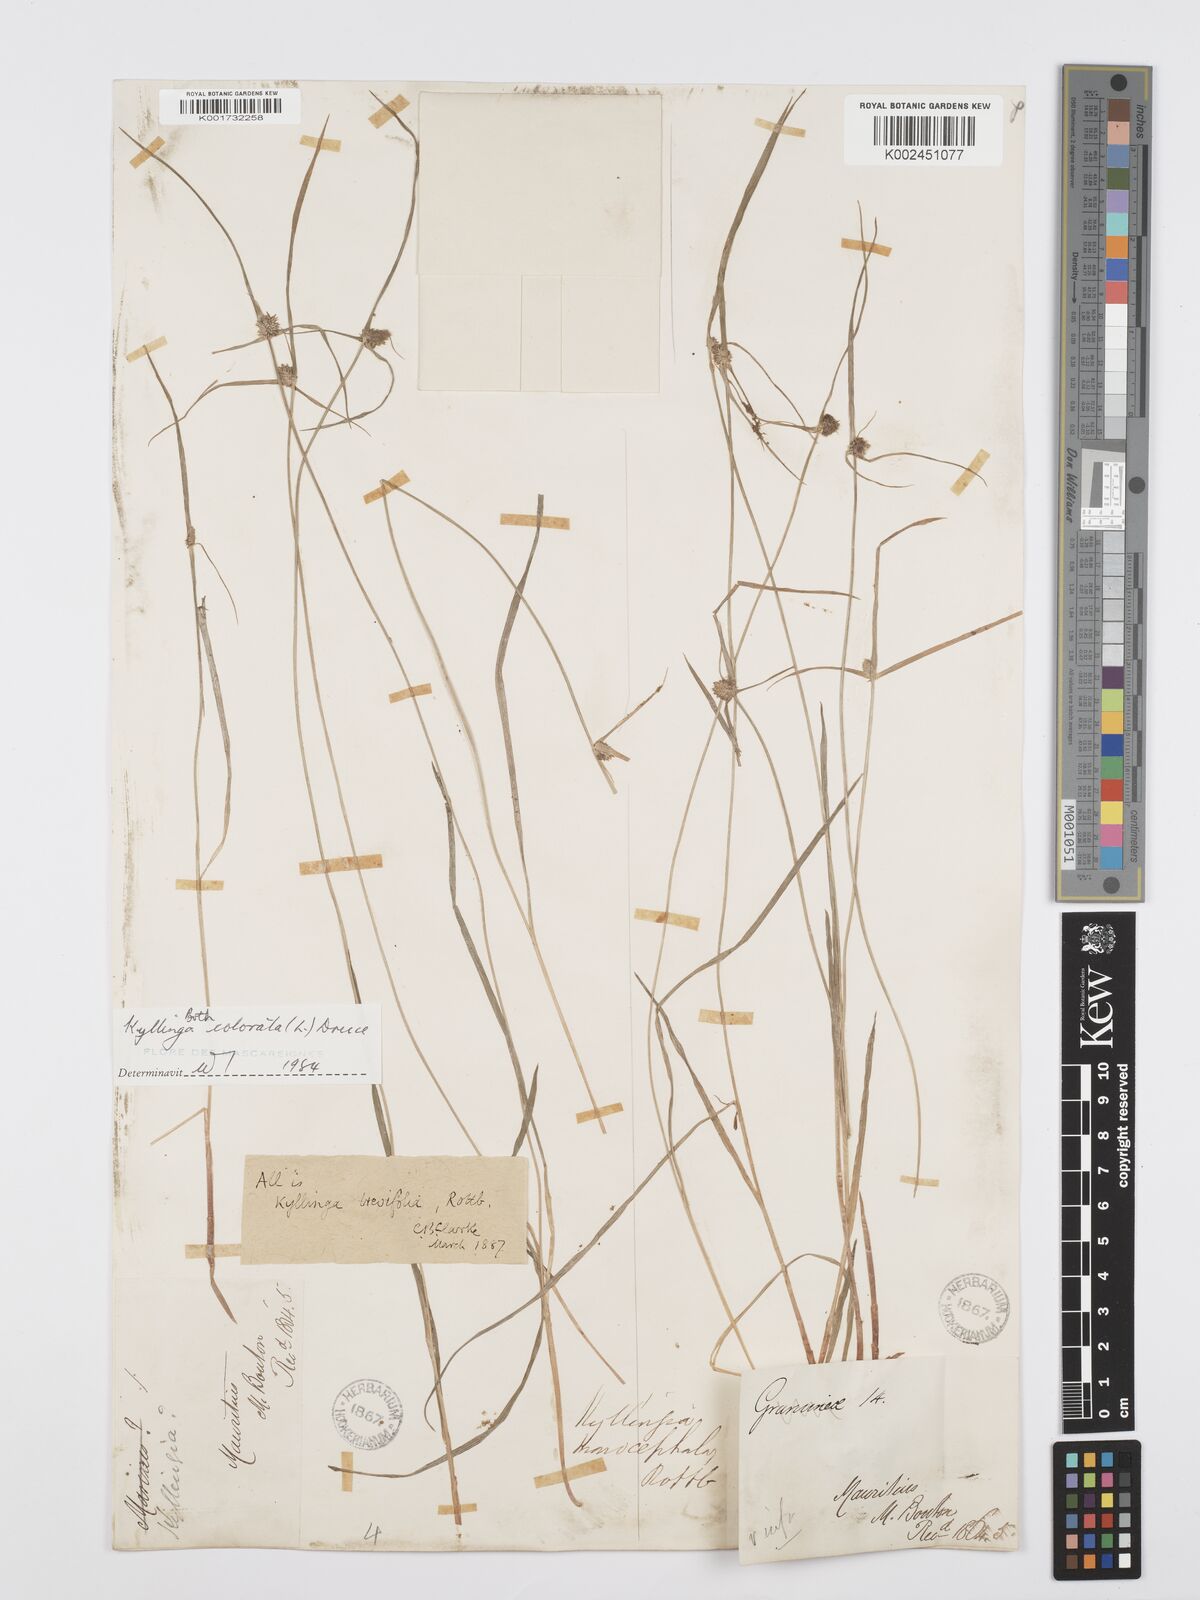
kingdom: Plantae
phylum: Tracheophyta
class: Liliopsida
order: Poales
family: Cyperaceae
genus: Cyperus
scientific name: Cyperus brevifolius
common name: Globe kyllinga
